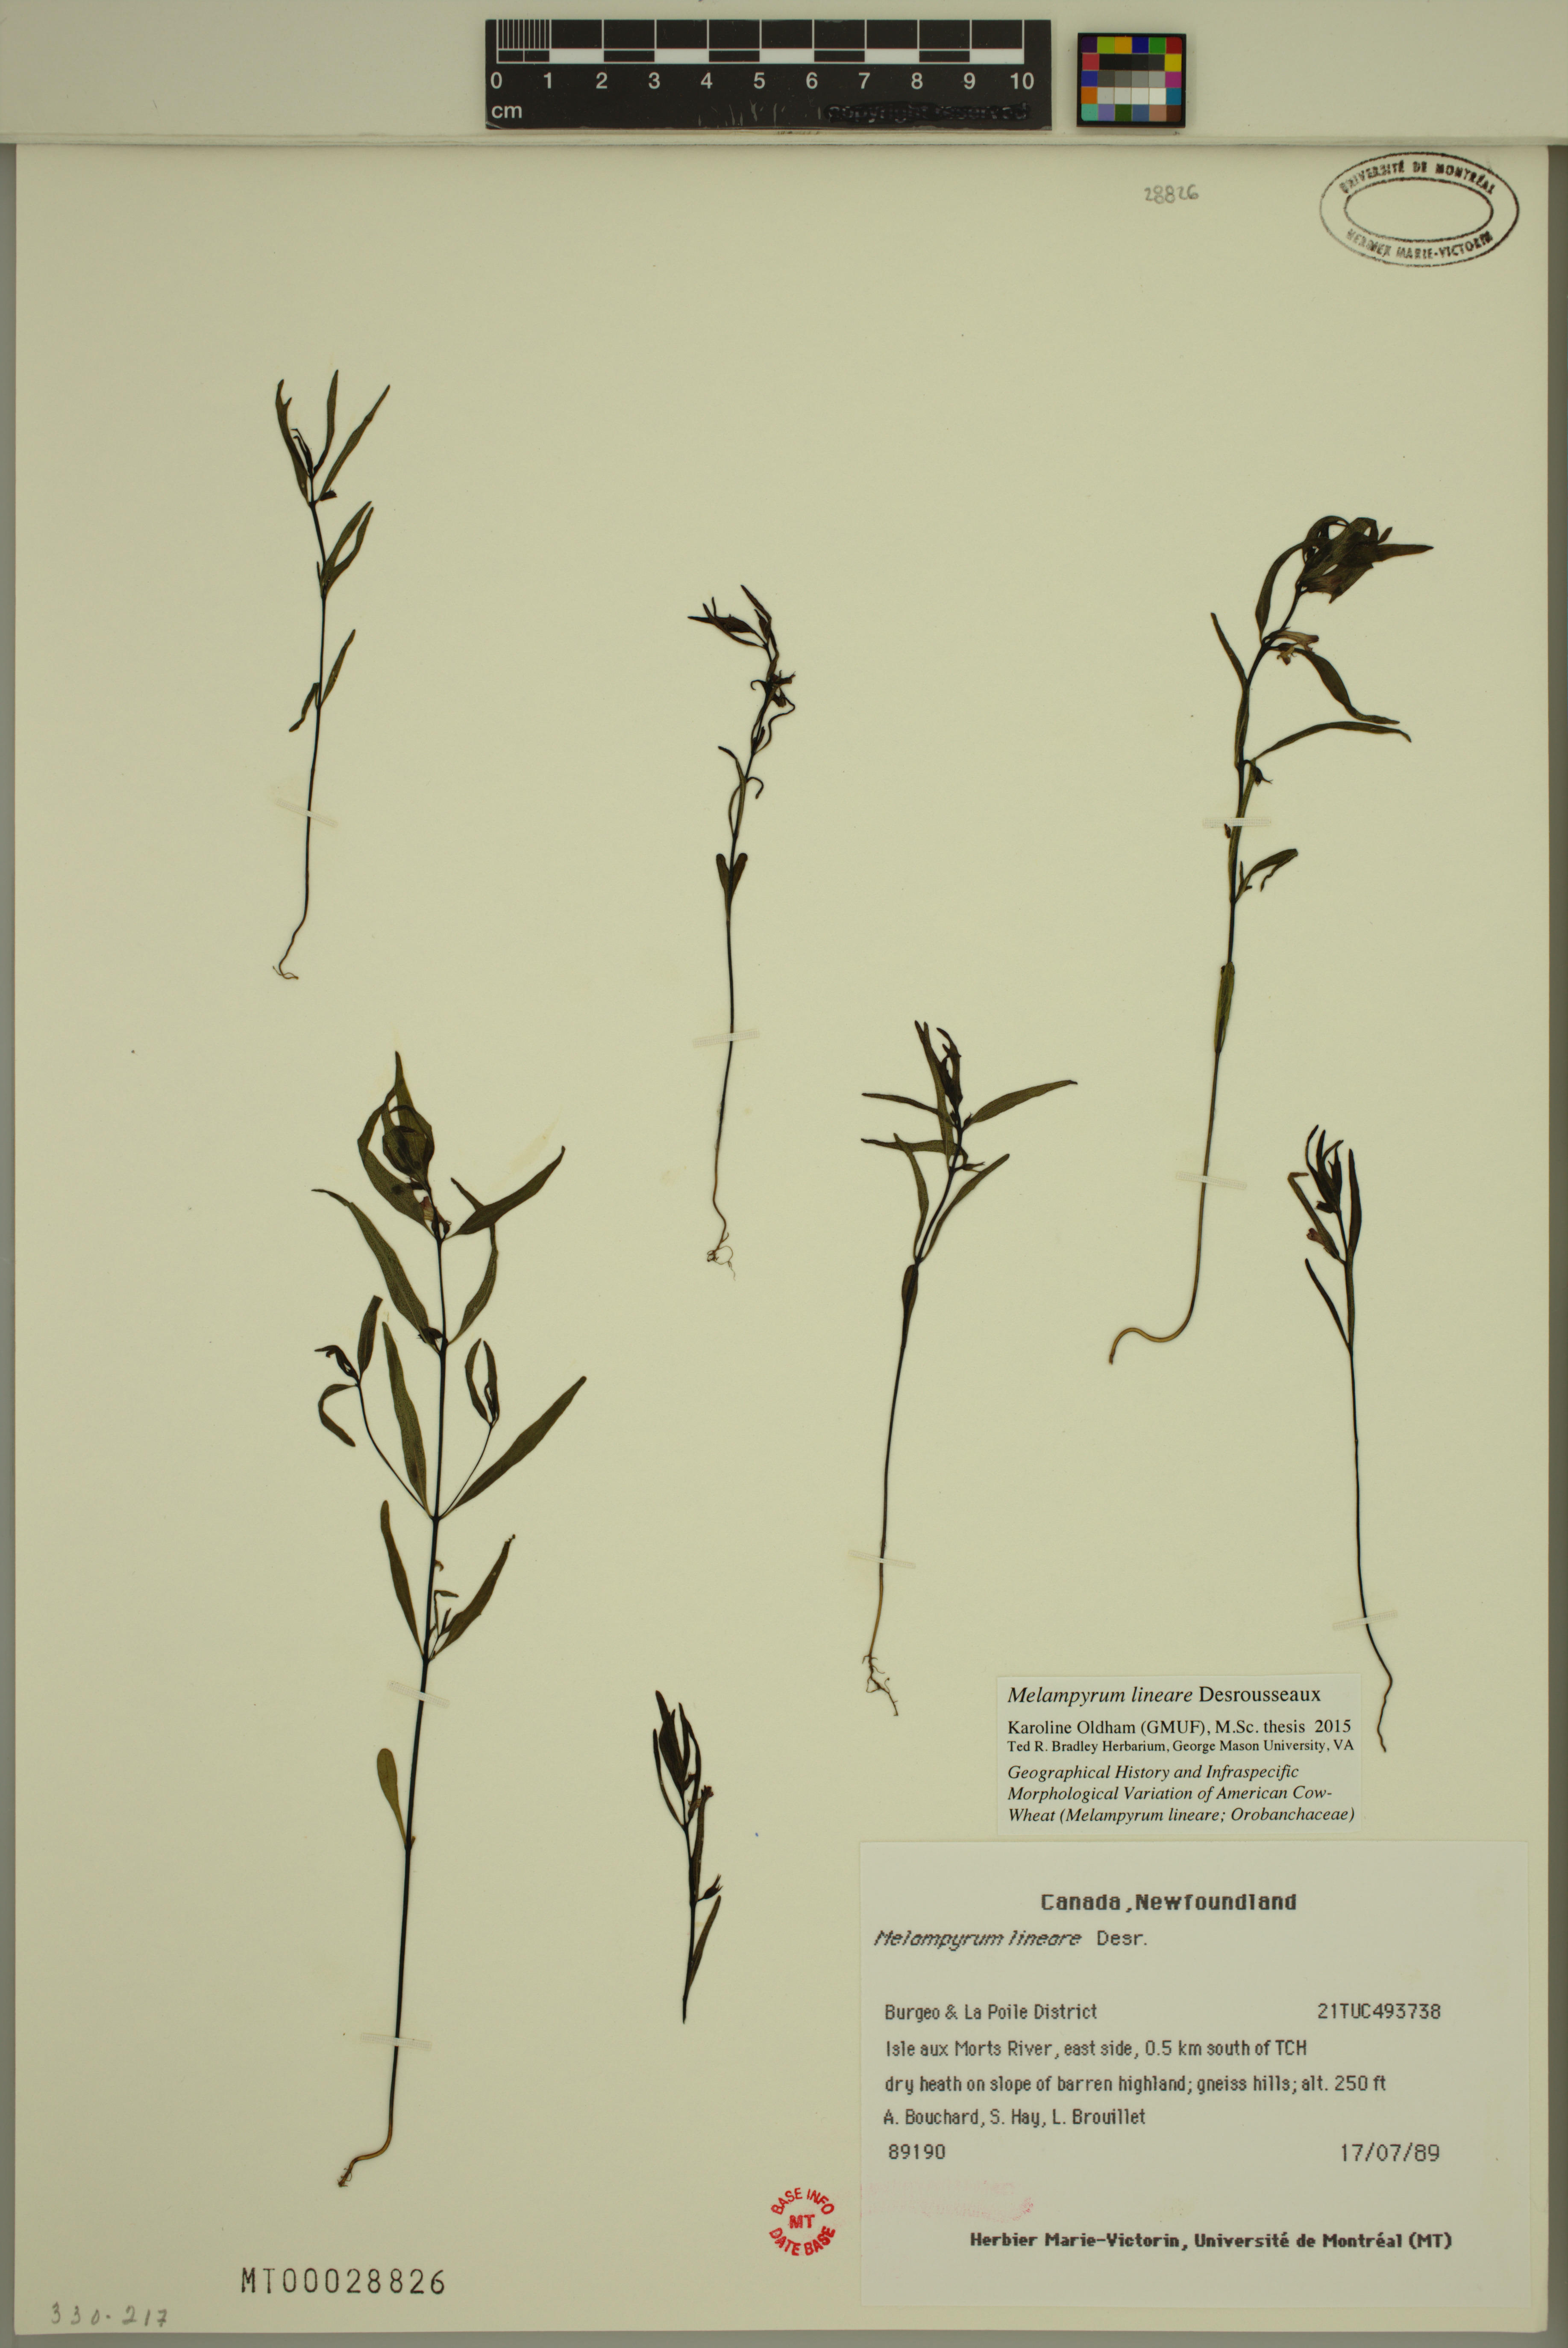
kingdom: Plantae
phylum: Tracheophyta
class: Magnoliopsida
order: Lamiales
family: Orobanchaceae
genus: Melampyrum
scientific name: Melampyrum lineare
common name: American cow-wheat
